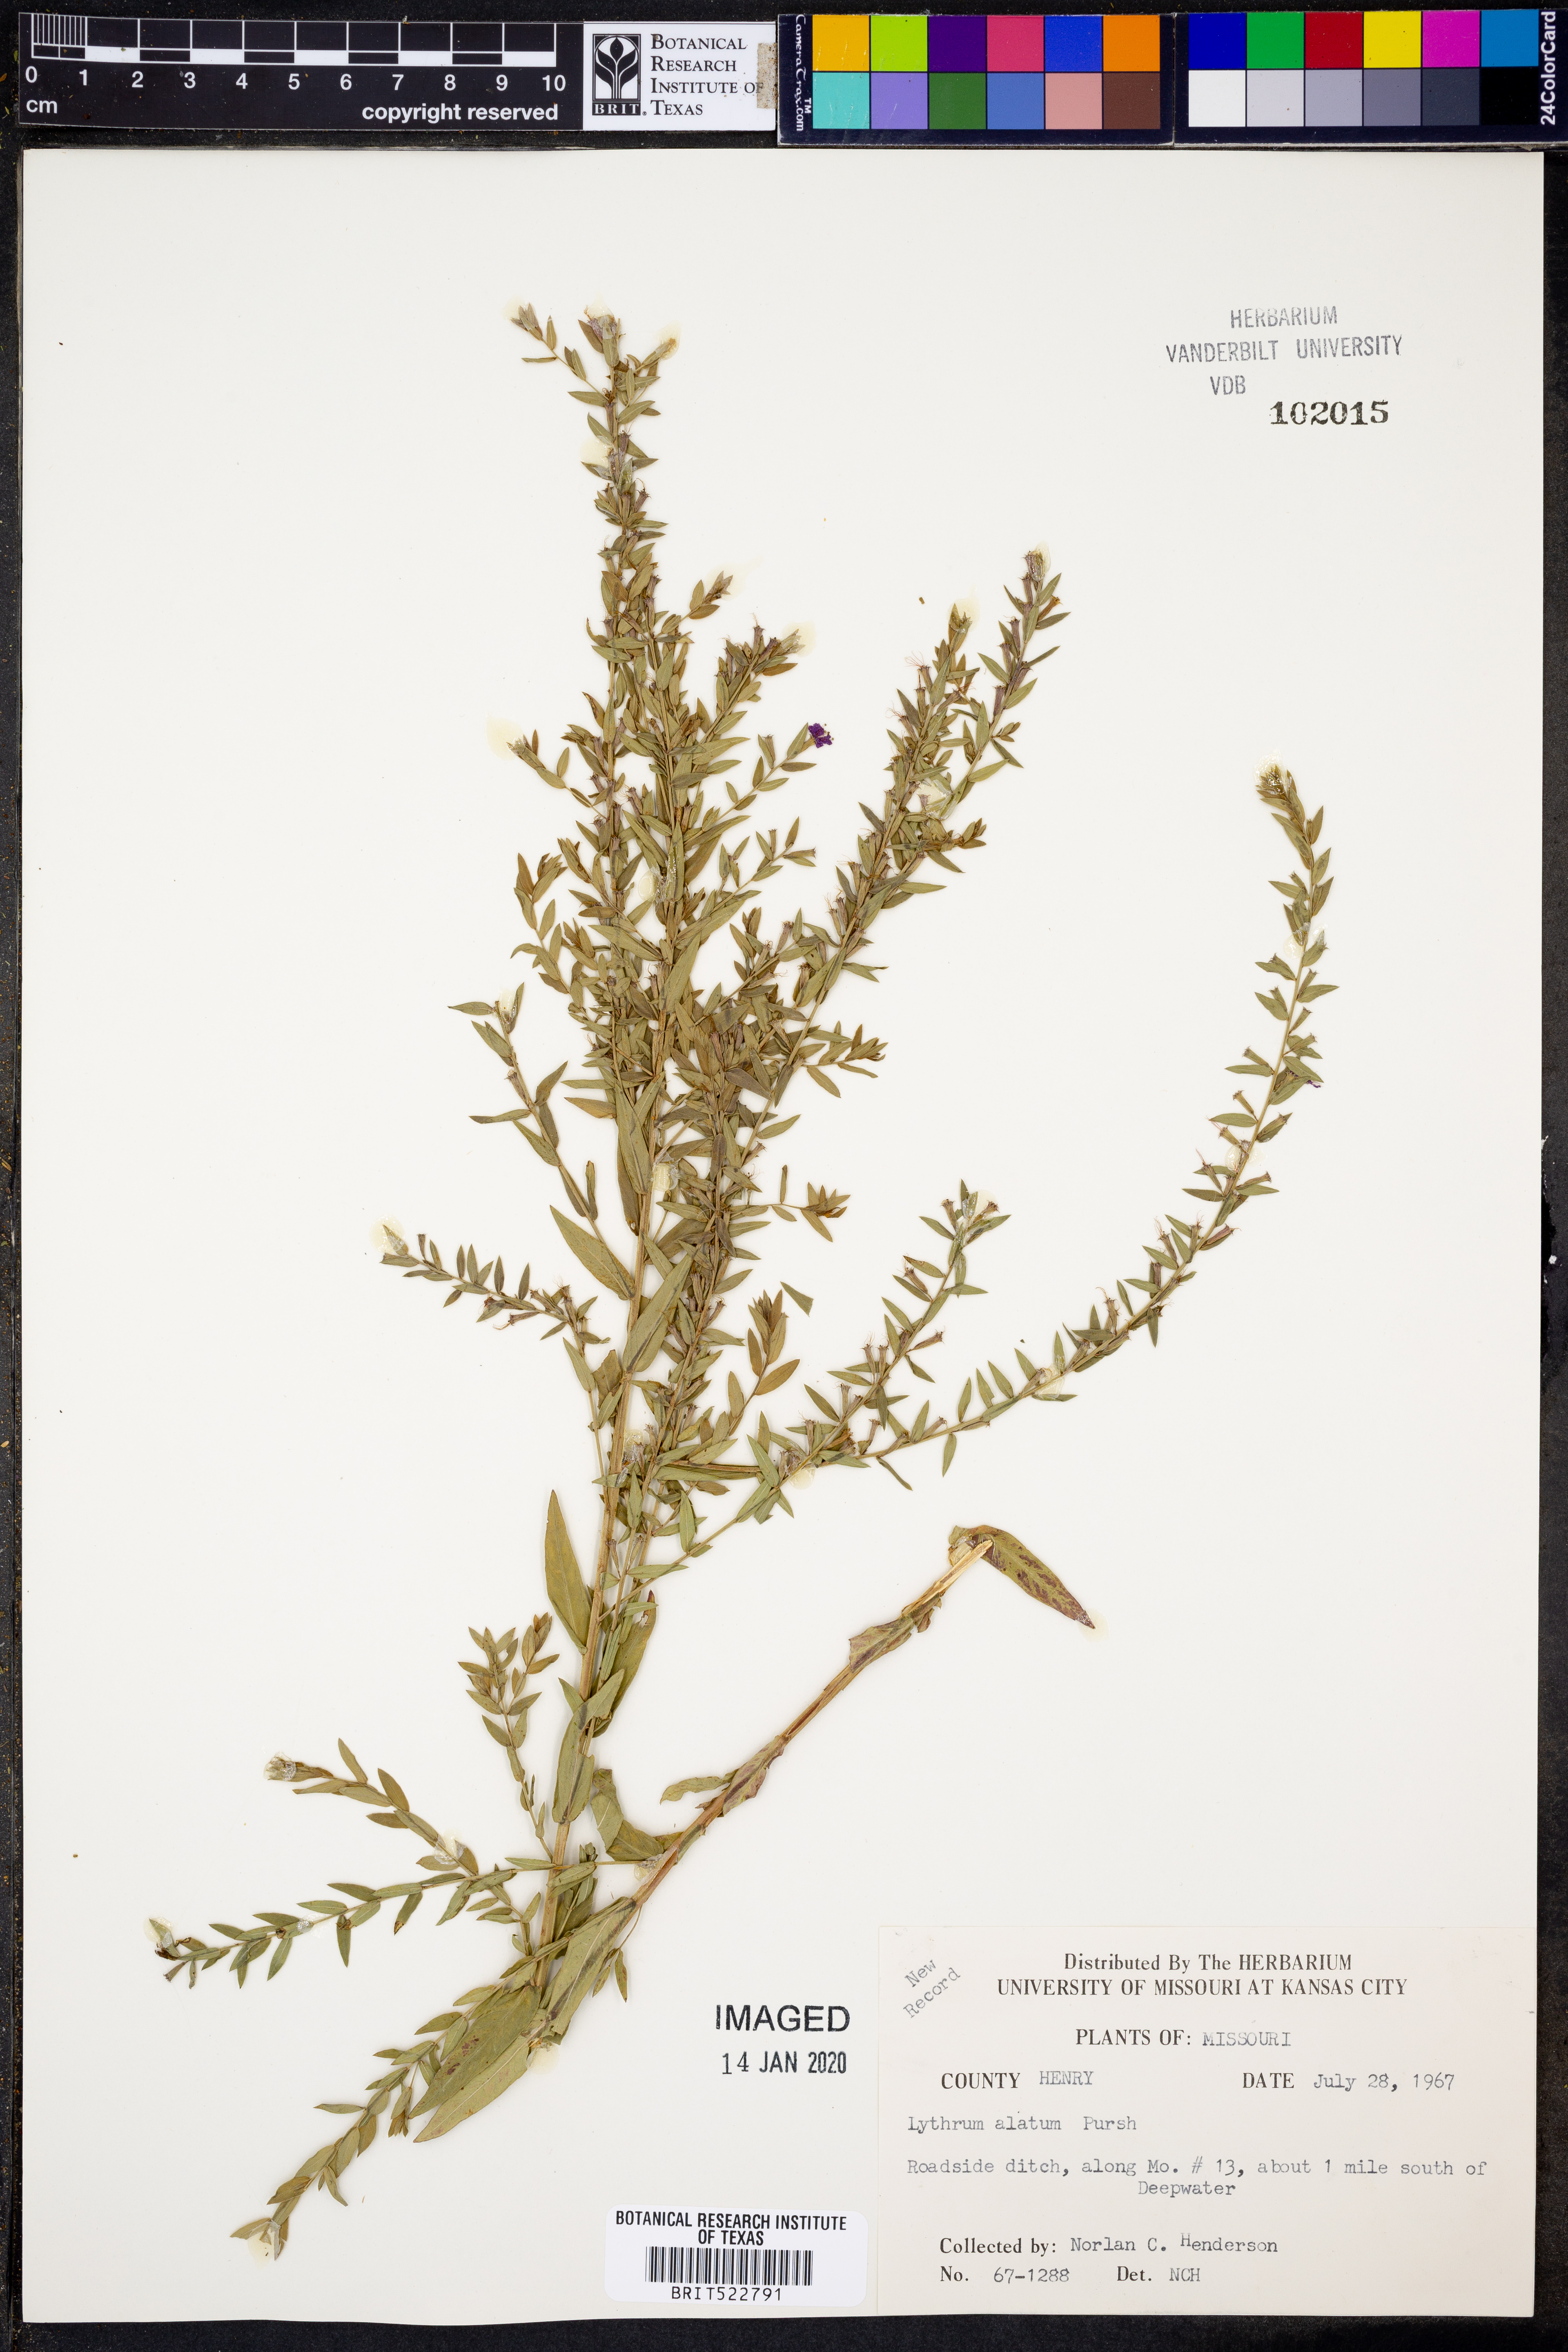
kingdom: Plantae
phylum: Tracheophyta
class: Magnoliopsida
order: Myrtales
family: Lythraceae
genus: Lythrum
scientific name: Lythrum alatum
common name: Winged loosestrife
